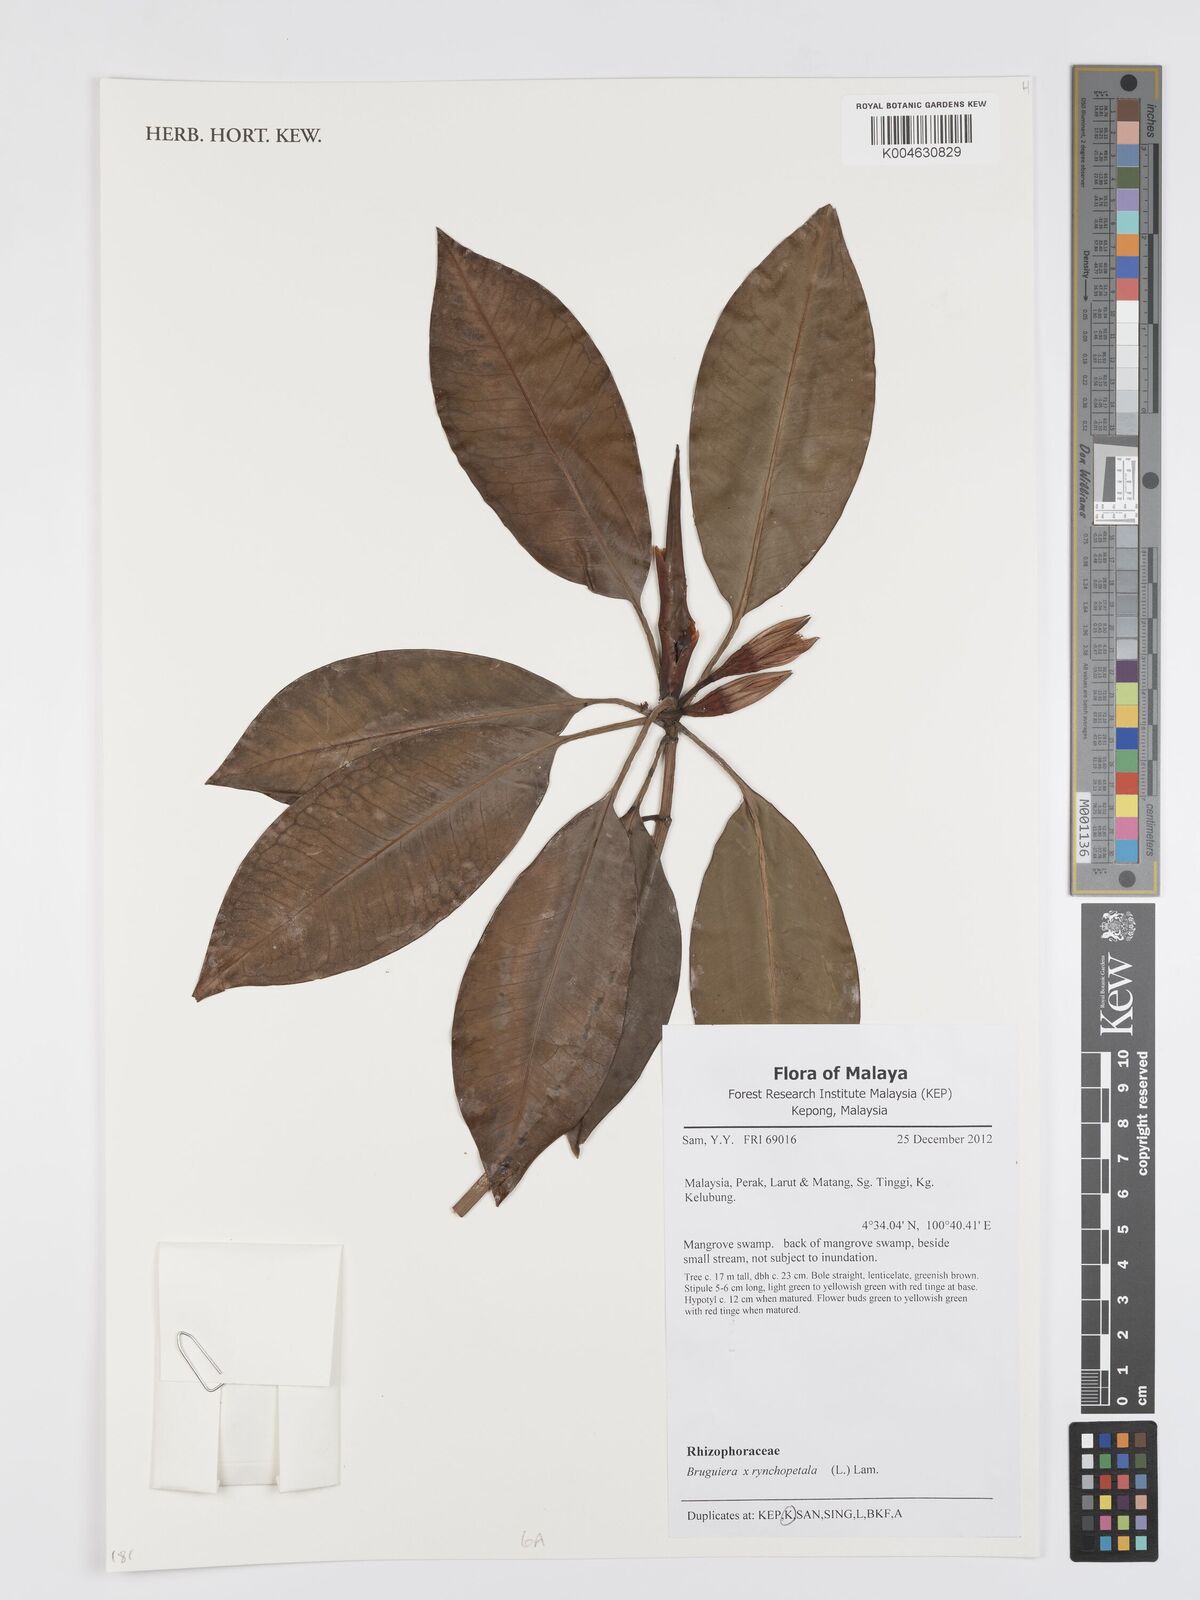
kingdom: Plantae
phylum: Tracheophyta
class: Magnoliopsida
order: Malpighiales
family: Rhizophoraceae
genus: Bruguiera
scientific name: Bruguiera rhynchopetala
